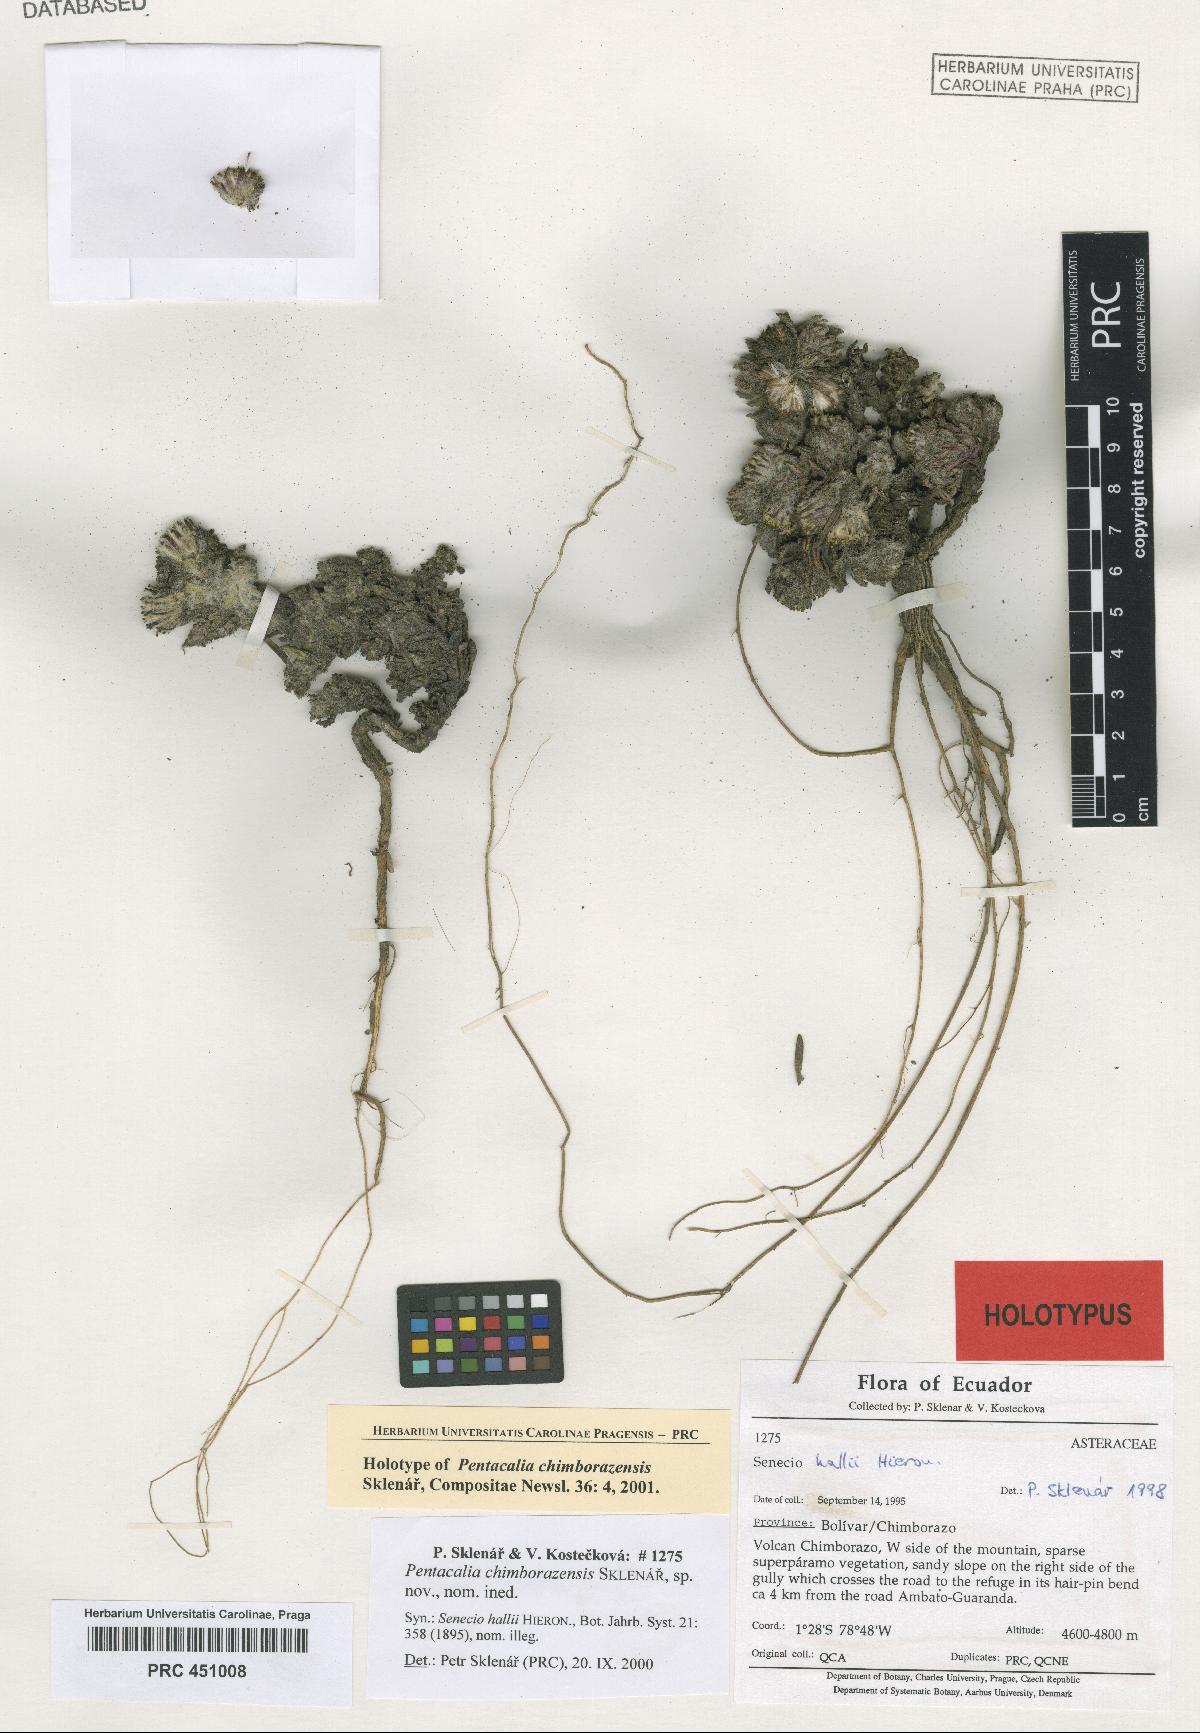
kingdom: Plantae
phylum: Tracheophyta
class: Magnoliopsida
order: Asterales
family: Asteraceae
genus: Monticalia
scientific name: Monticalia chimborazensis
